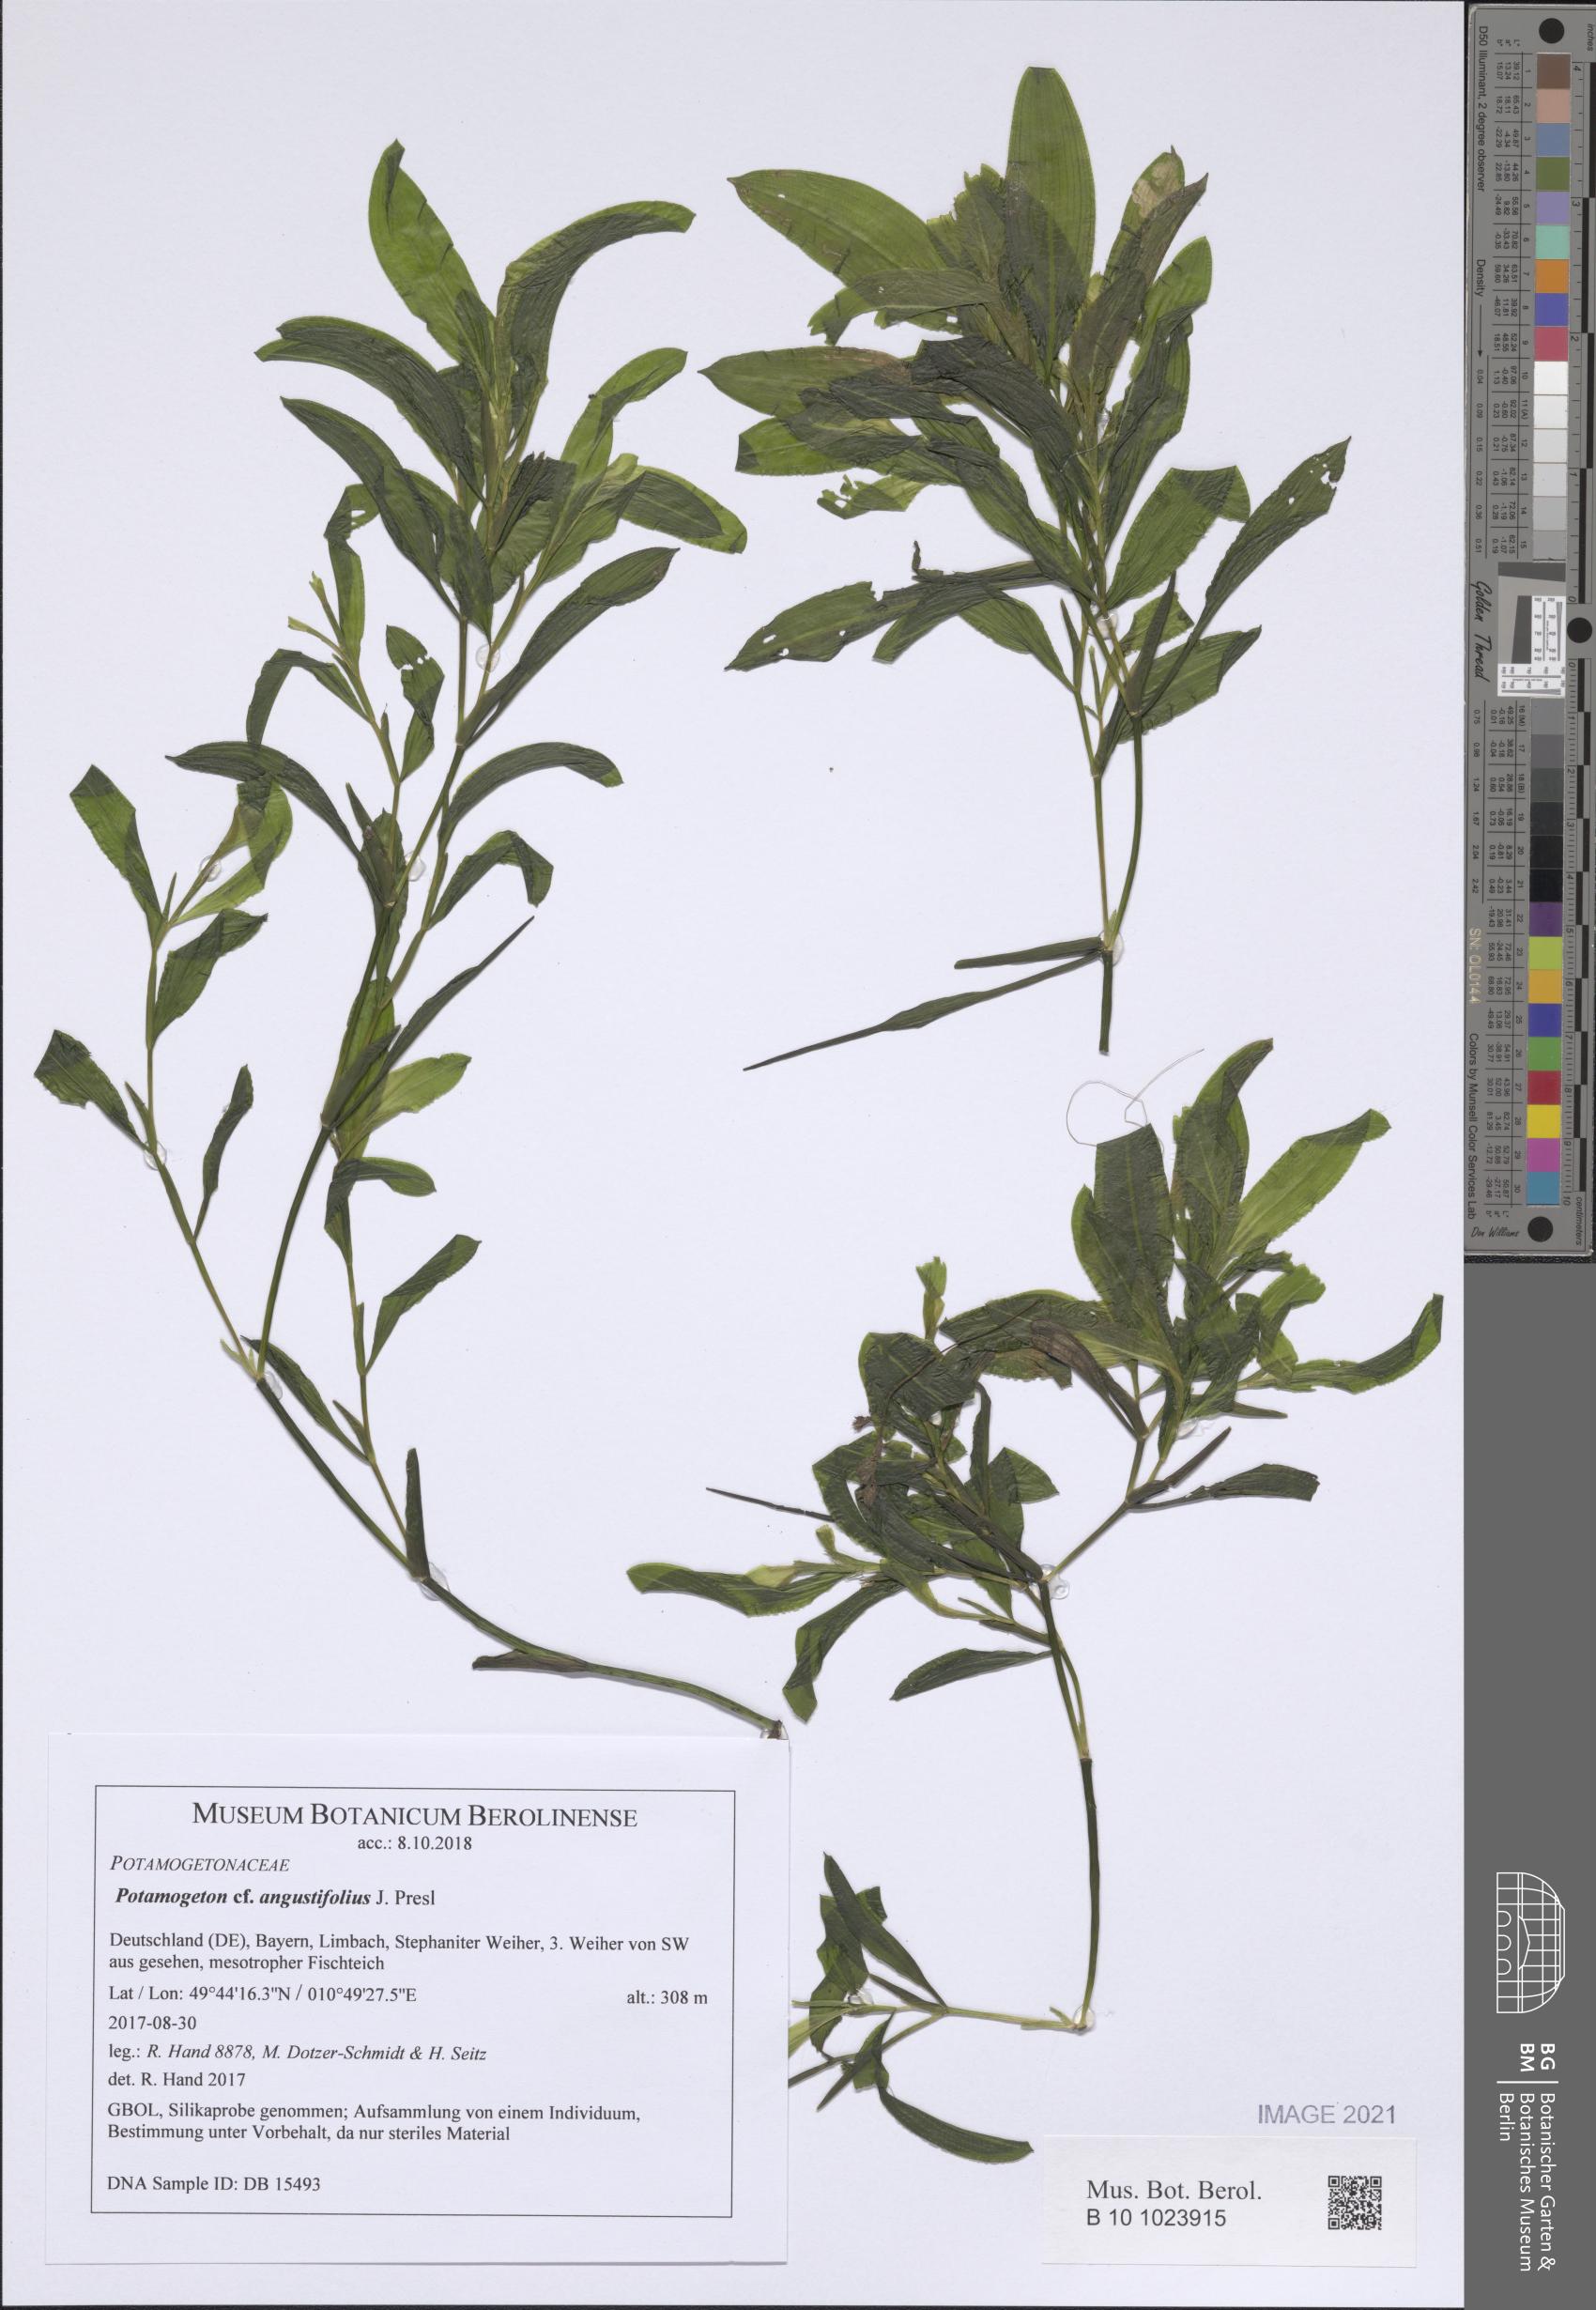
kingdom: Plantae
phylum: Tracheophyta
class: Liliopsida
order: Alismatales
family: Potamogetonaceae
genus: Potamogeton
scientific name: Potamogeton angustifolius
